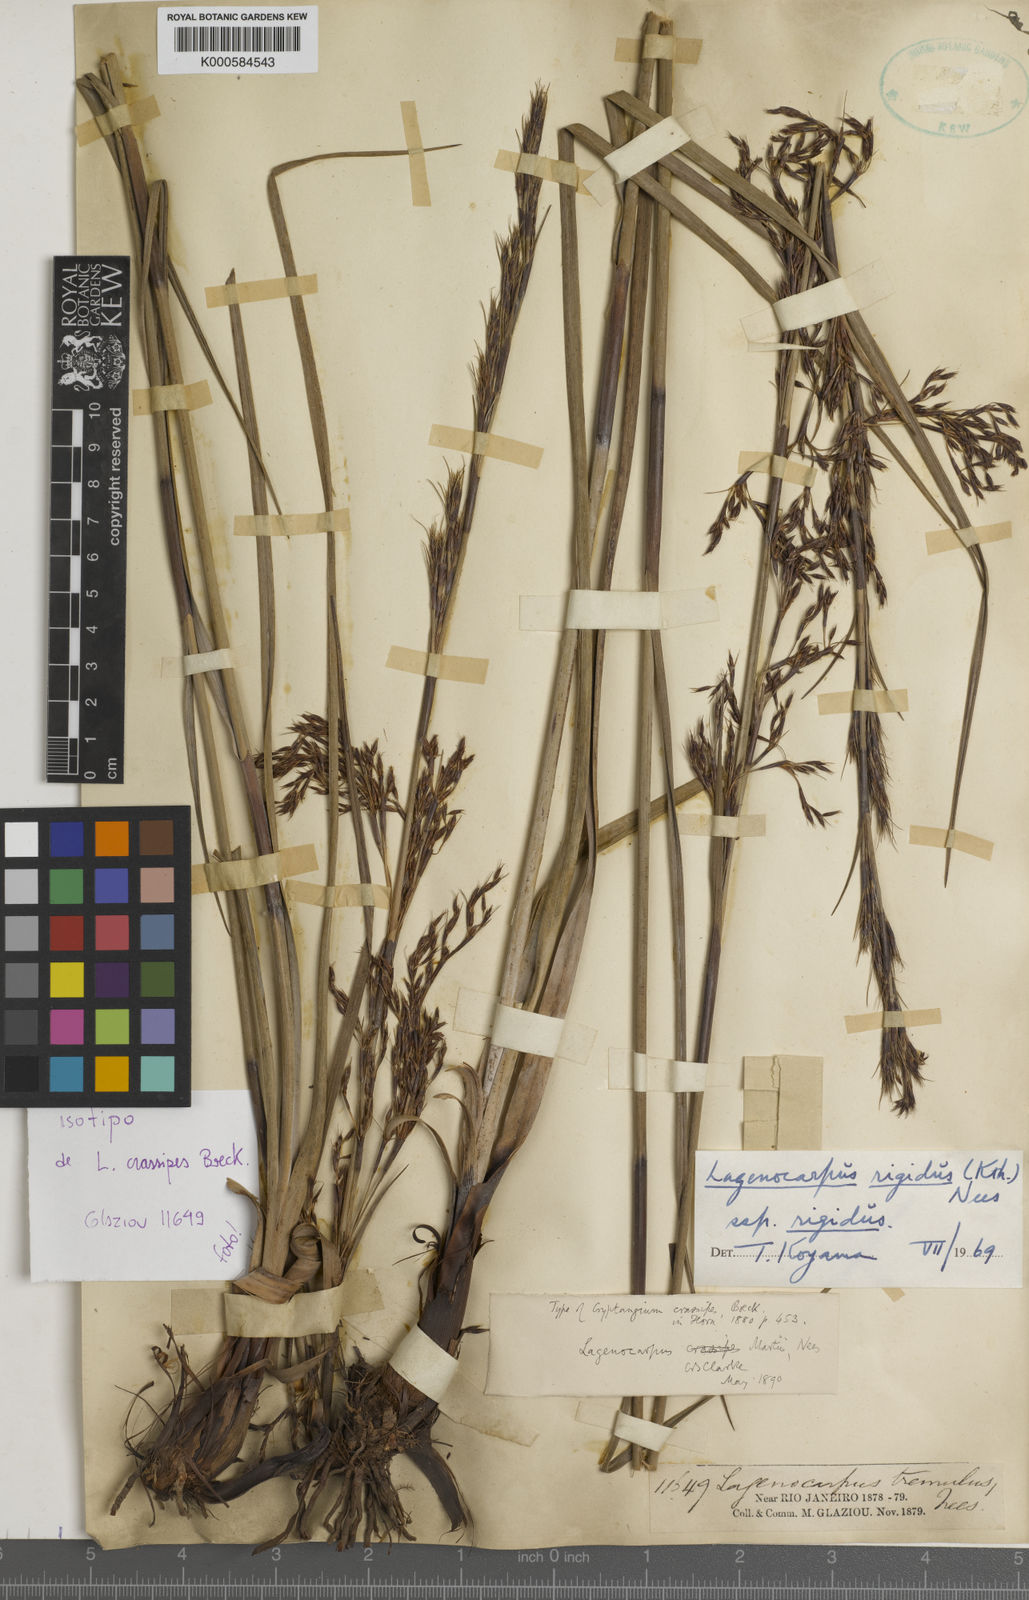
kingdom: Plantae
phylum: Tracheophyta
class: Liliopsida
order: Poales
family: Cyperaceae
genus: Lagenocarpus
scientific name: Lagenocarpus rigidus
